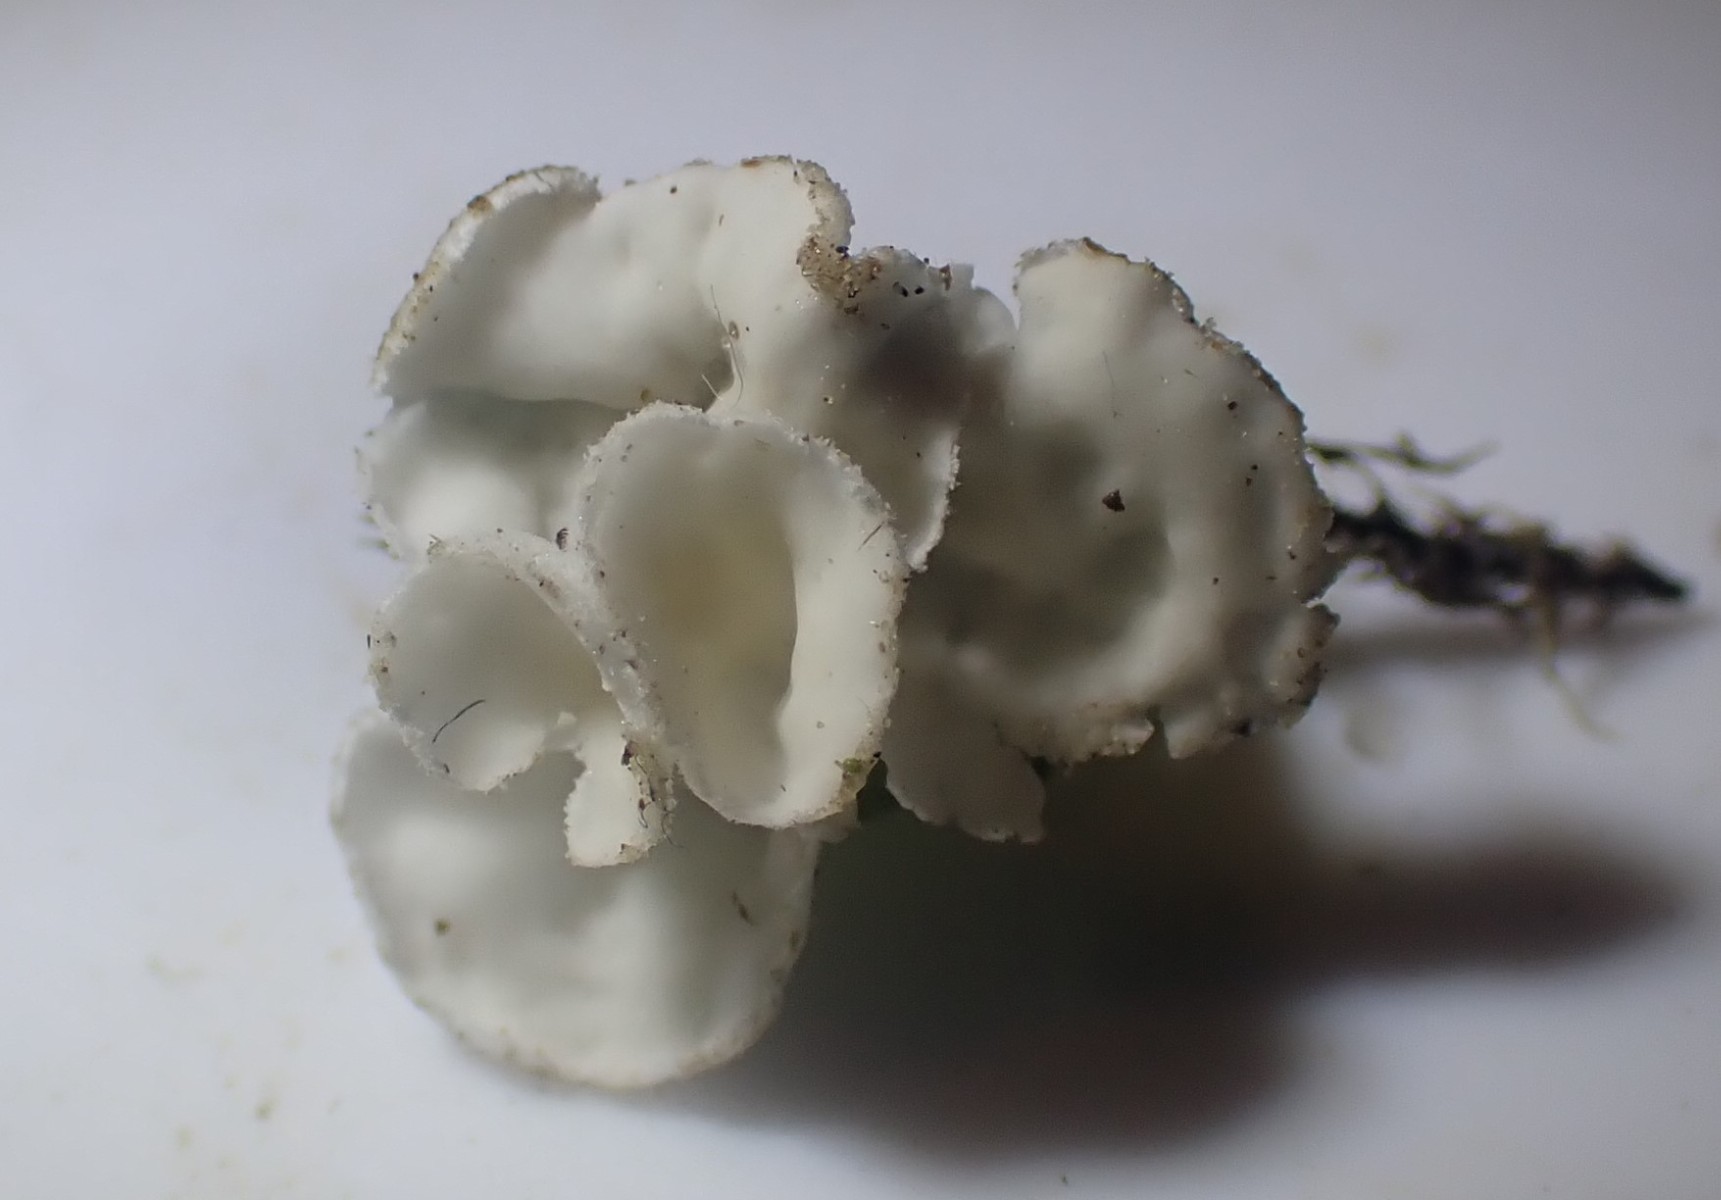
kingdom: Fungi
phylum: Basidiomycota
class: Agaricomycetes
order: Agaricales
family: Tricholomataceae
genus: Rimbachia
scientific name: Rimbachia arachnoidea
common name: Almindelig mosskål
